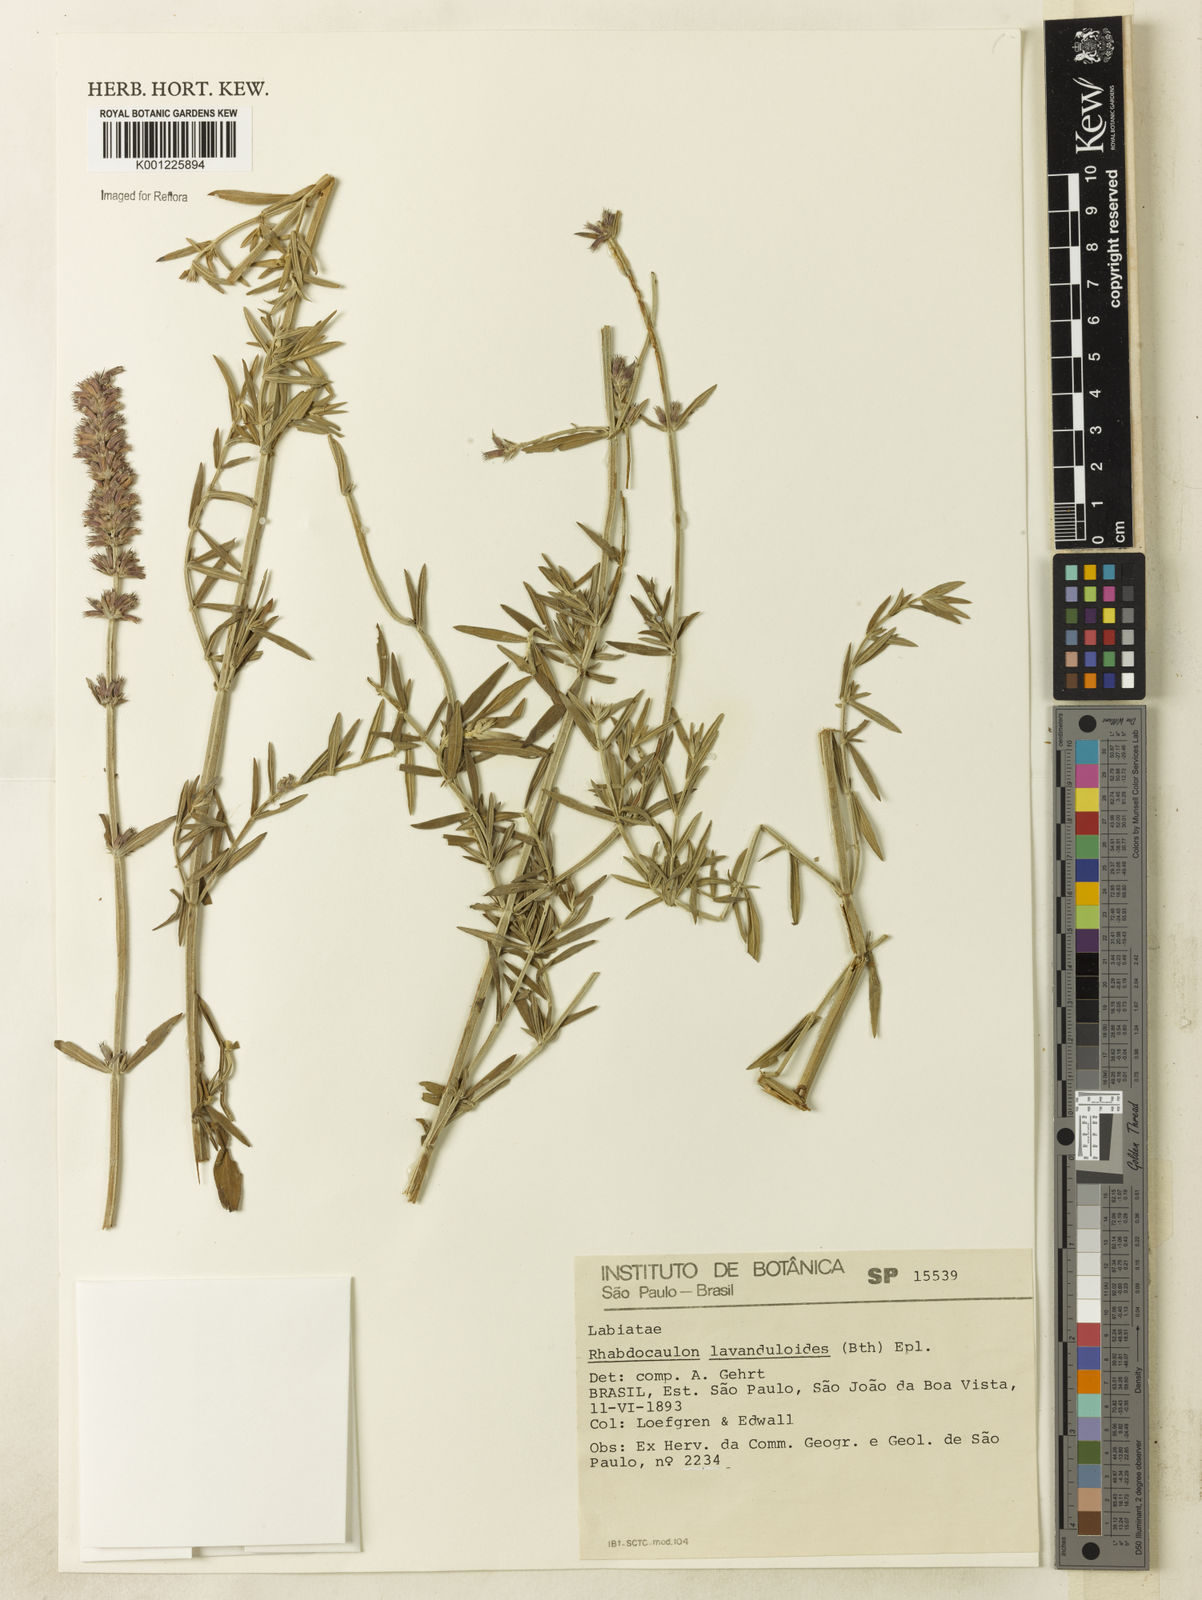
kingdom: Plantae
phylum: Tracheophyta
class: Magnoliopsida
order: Lamiales
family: Lamiaceae
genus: Rhabdocaulon
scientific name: Rhabdocaulon lavanduloides
